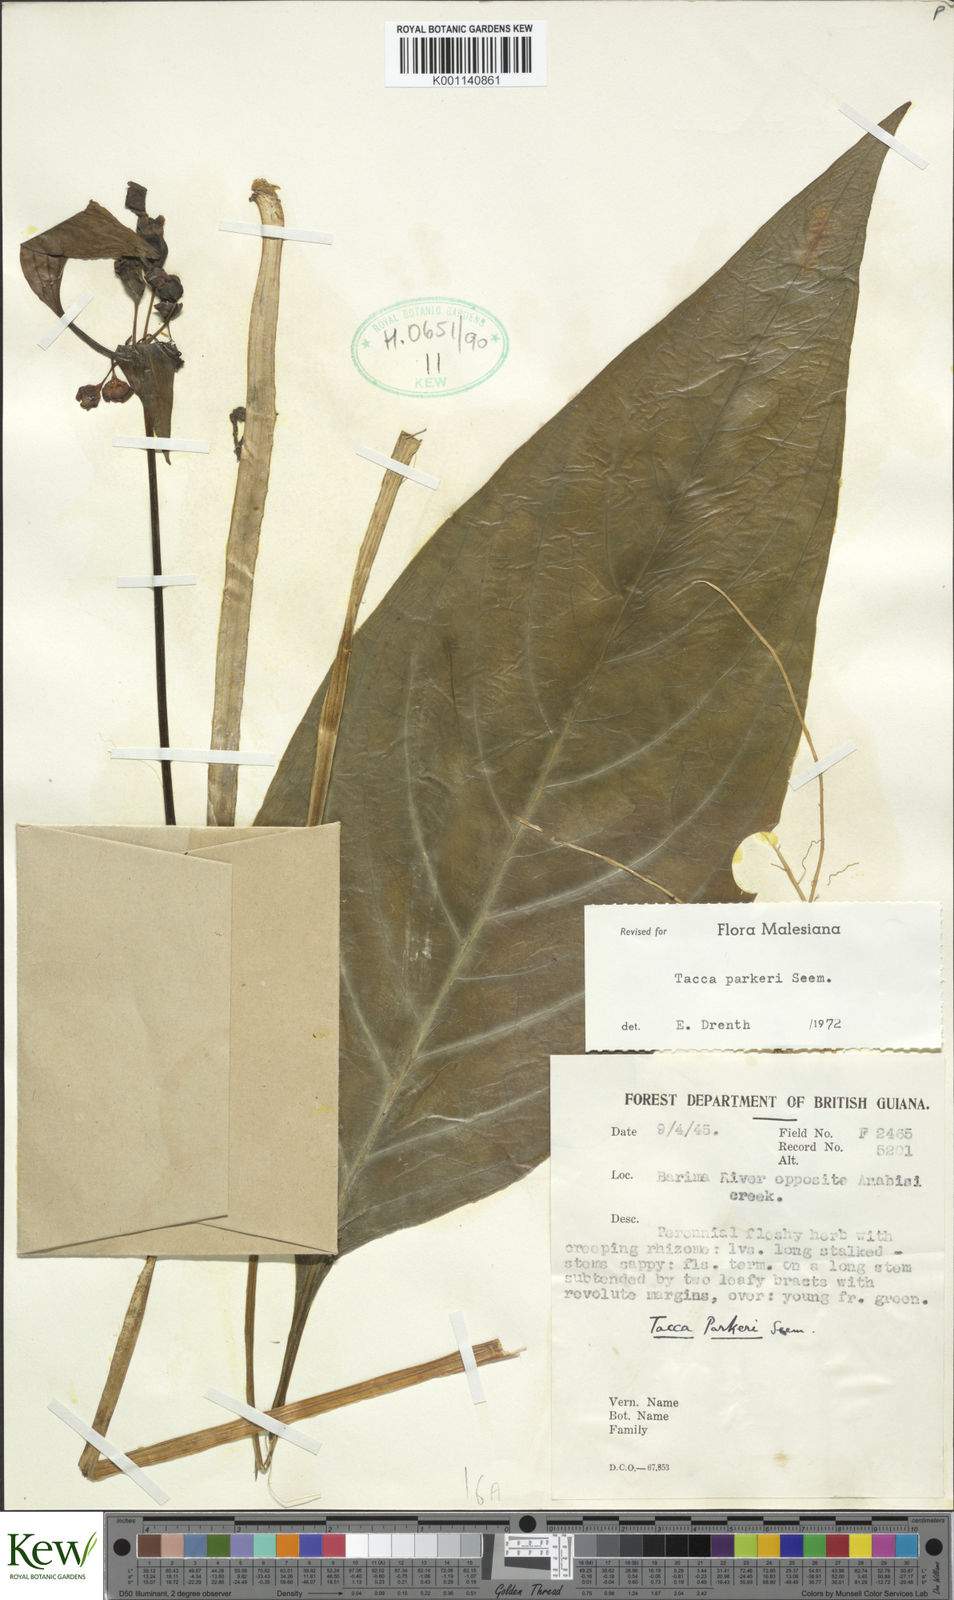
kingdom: Plantae
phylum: Tracheophyta
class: Liliopsida
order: Dioscoreales
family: Dioscoreaceae
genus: Tacca
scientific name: Tacca parkeri
